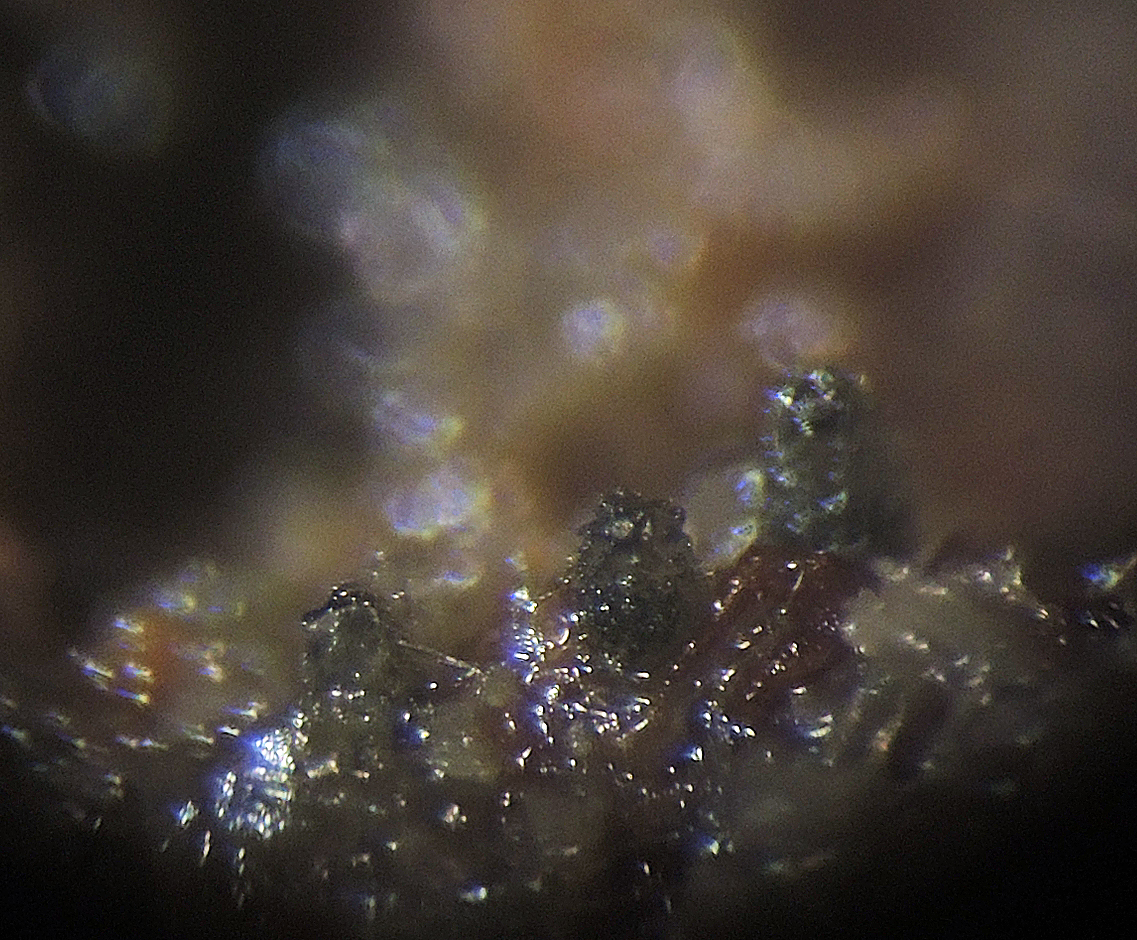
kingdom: Fungi
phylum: Ascomycota
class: Sordariomycetes
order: Sordariales
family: Neoschizotheciaceae
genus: Neoschizothecium
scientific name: Neoschizothecium tetrasporum
